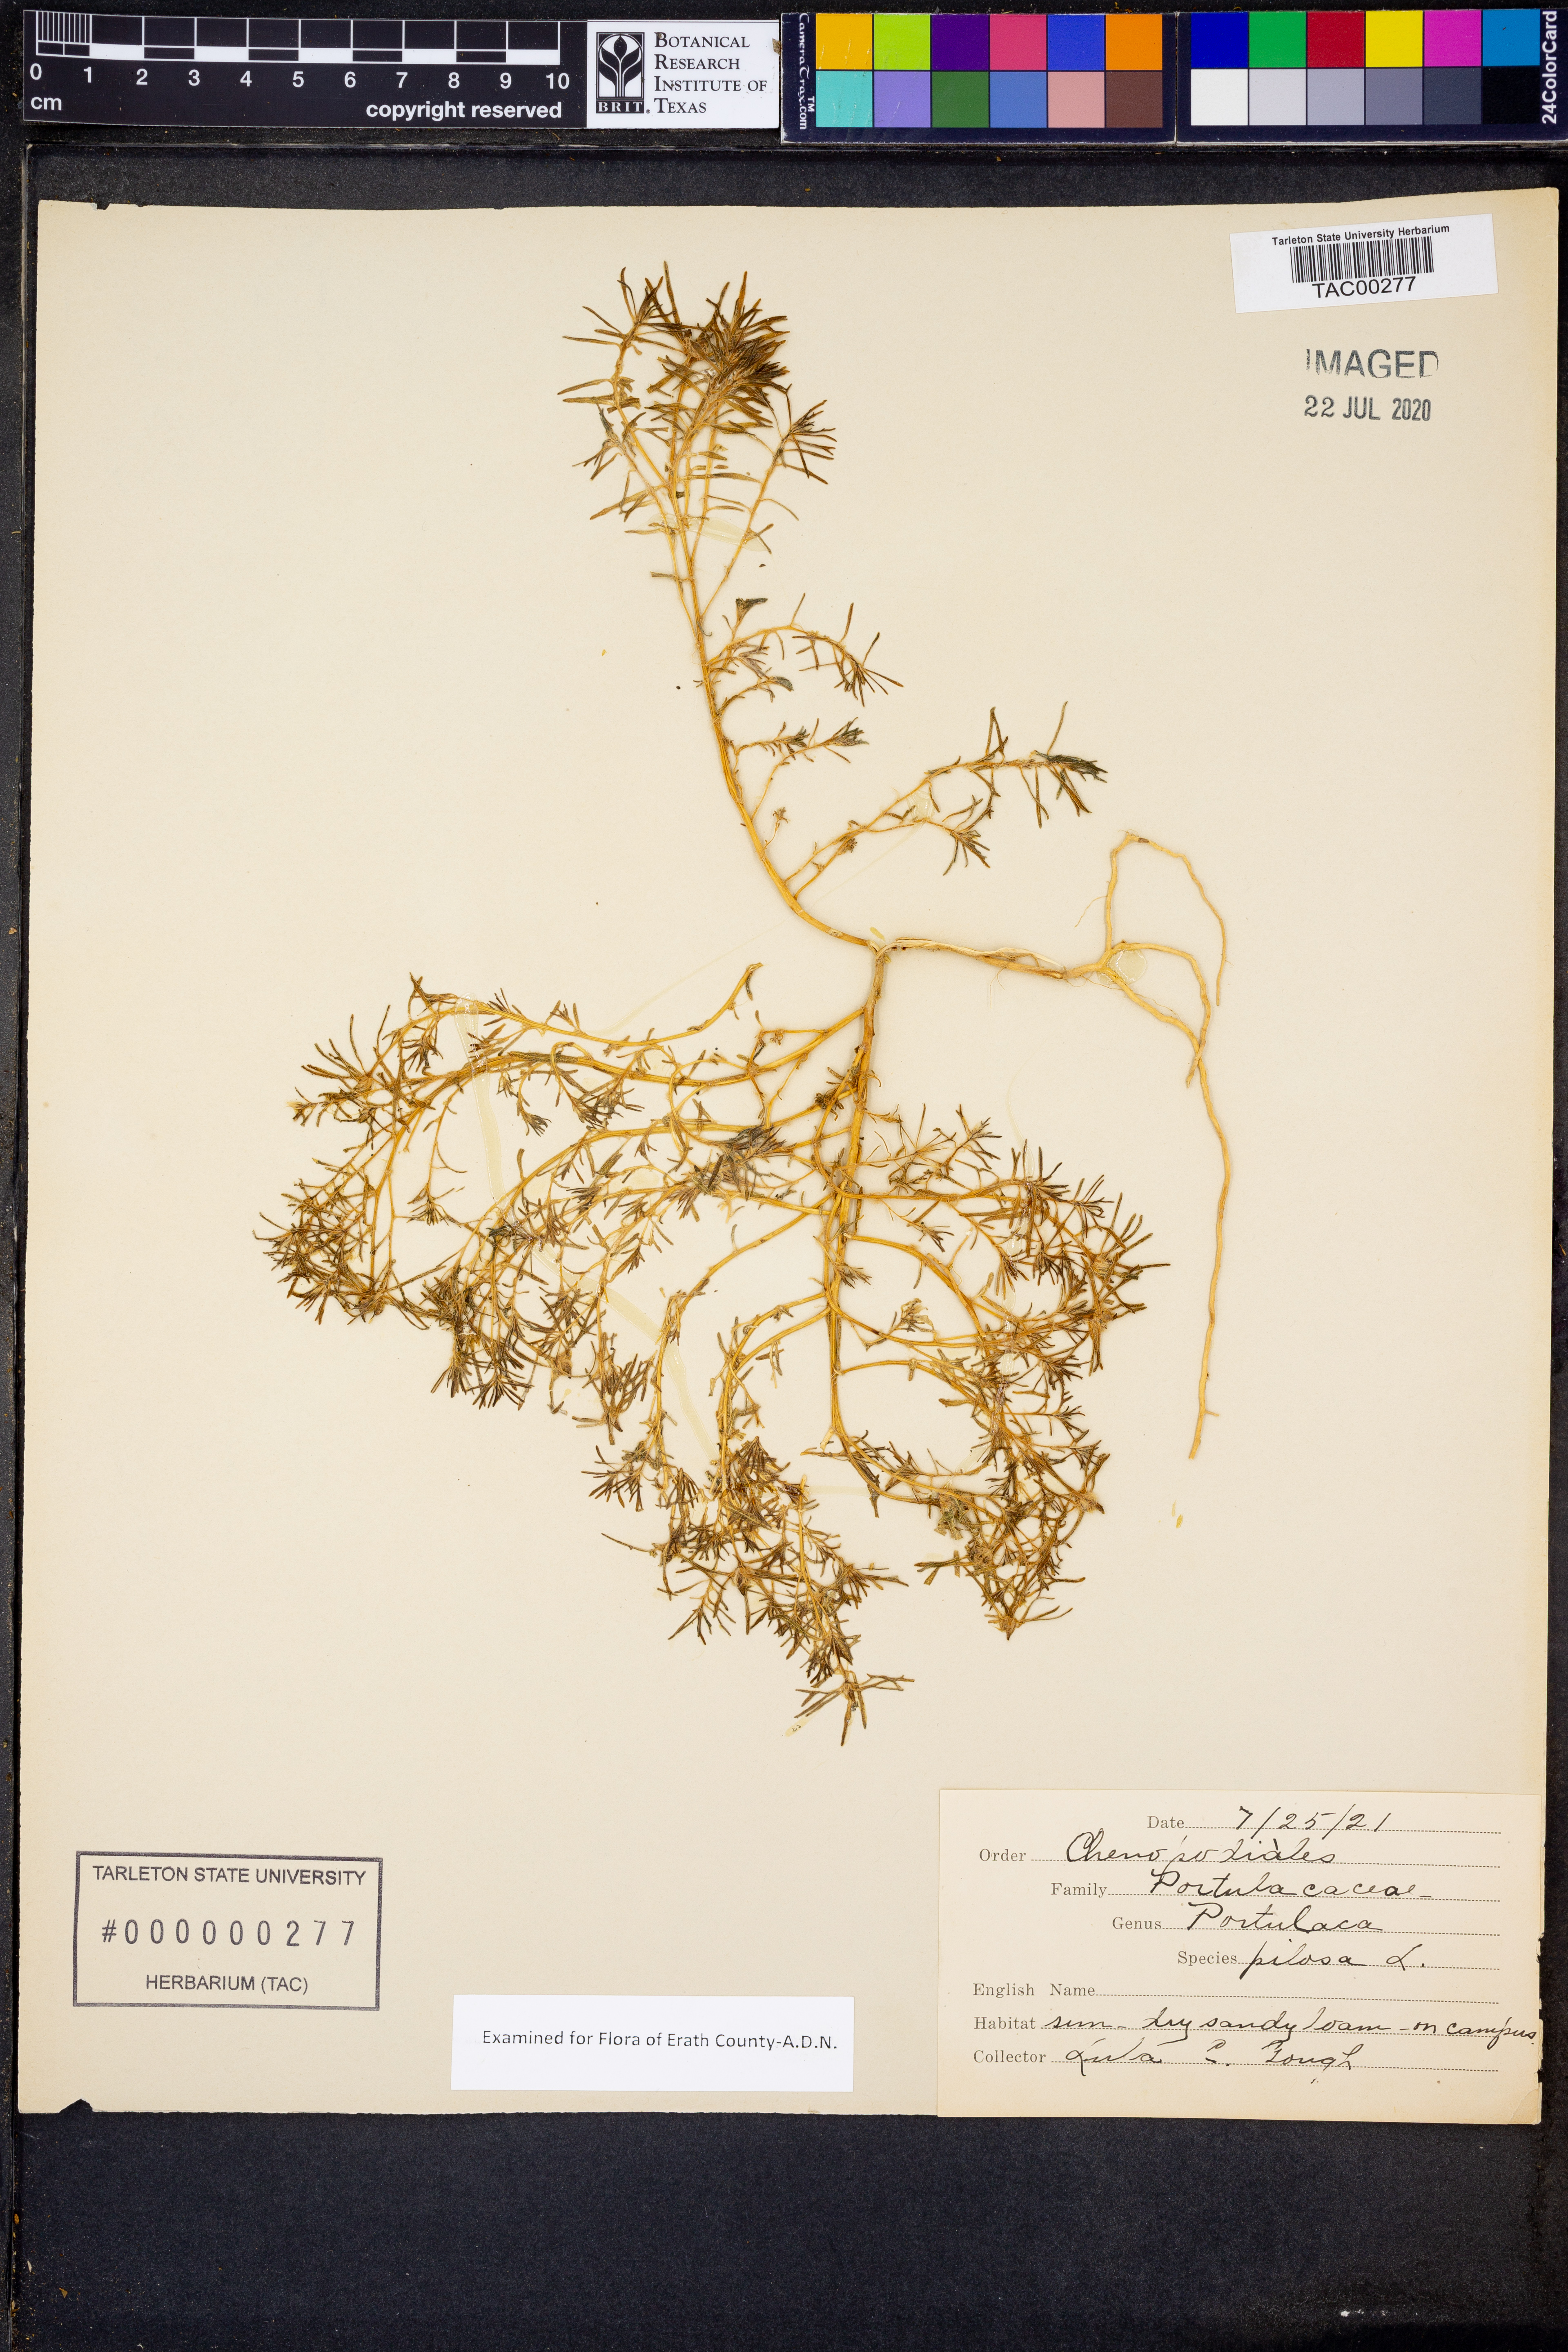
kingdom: Plantae
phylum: Tracheophyta
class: Magnoliopsida
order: Caryophyllales
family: Portulacaceae
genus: Portulaca
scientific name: Portulaca pilosa
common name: Kiss me quick
